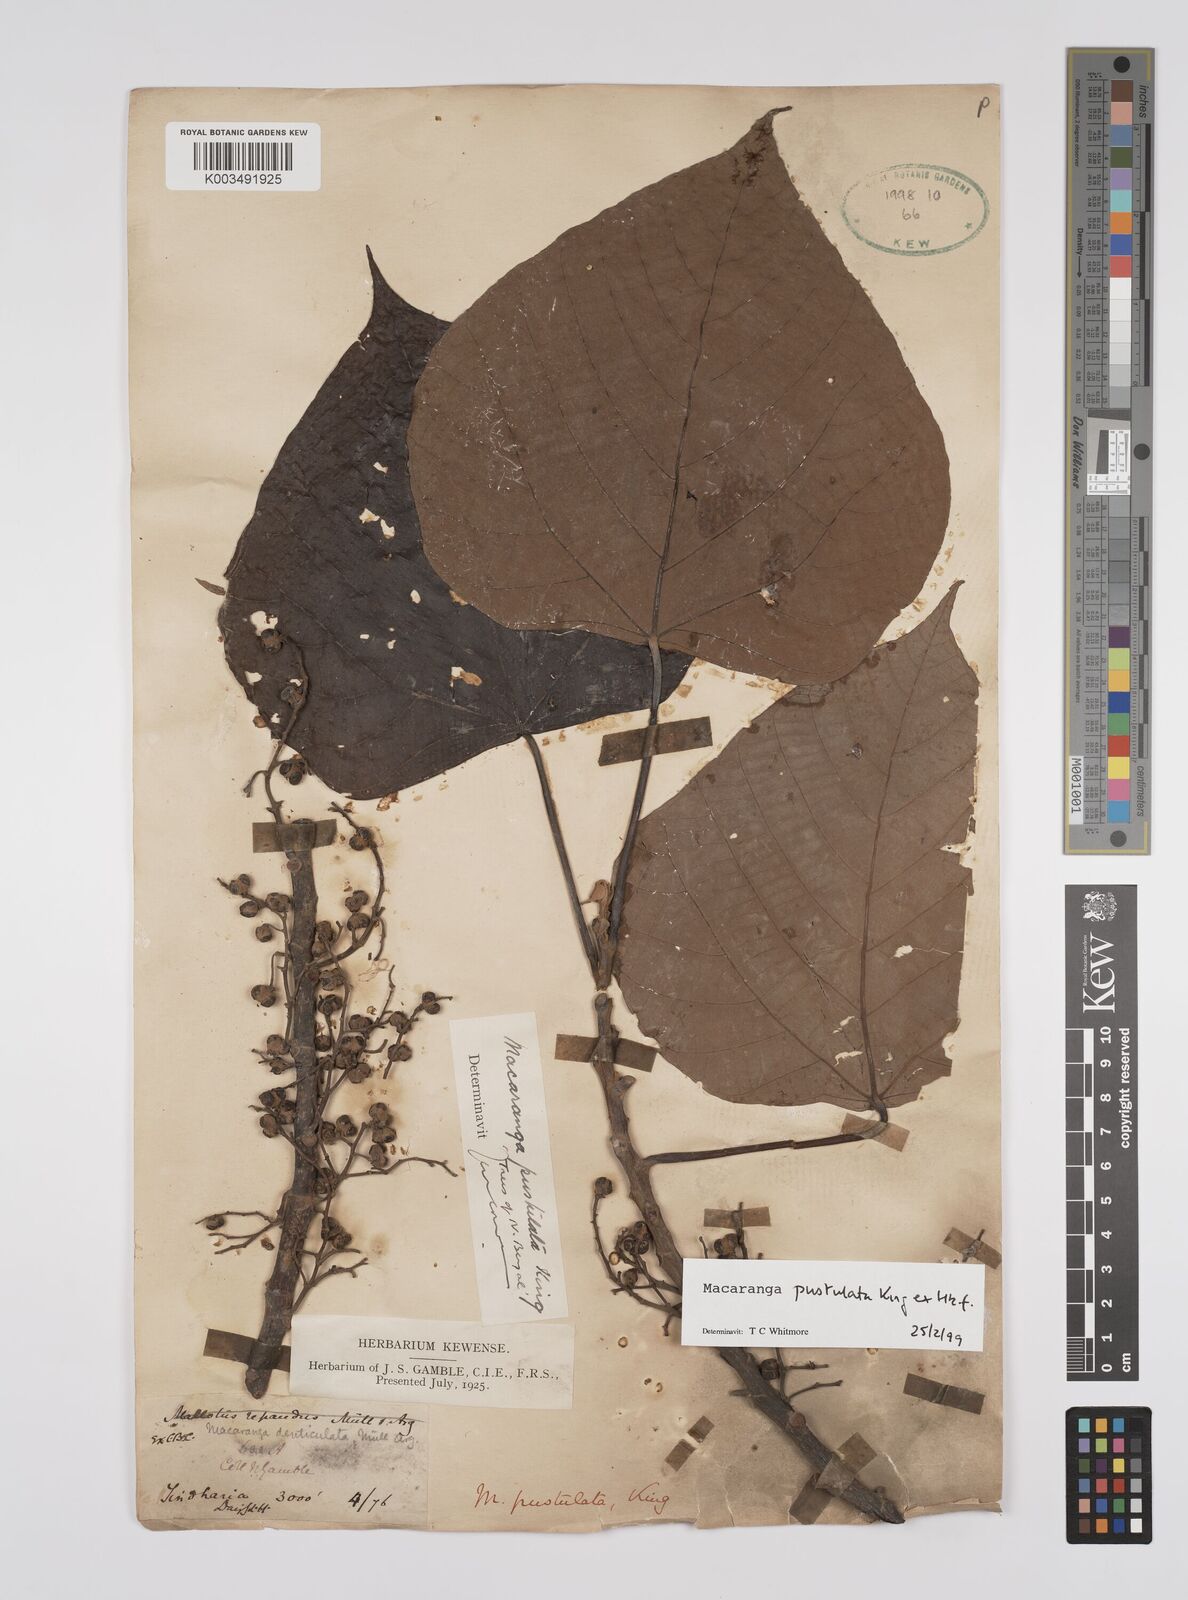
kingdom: Plantae
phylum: Tracheophyta
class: Magnoliopsida
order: Malpighiales
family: Euphorbiaceae
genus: Macaranga
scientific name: Macaranga denticulata
